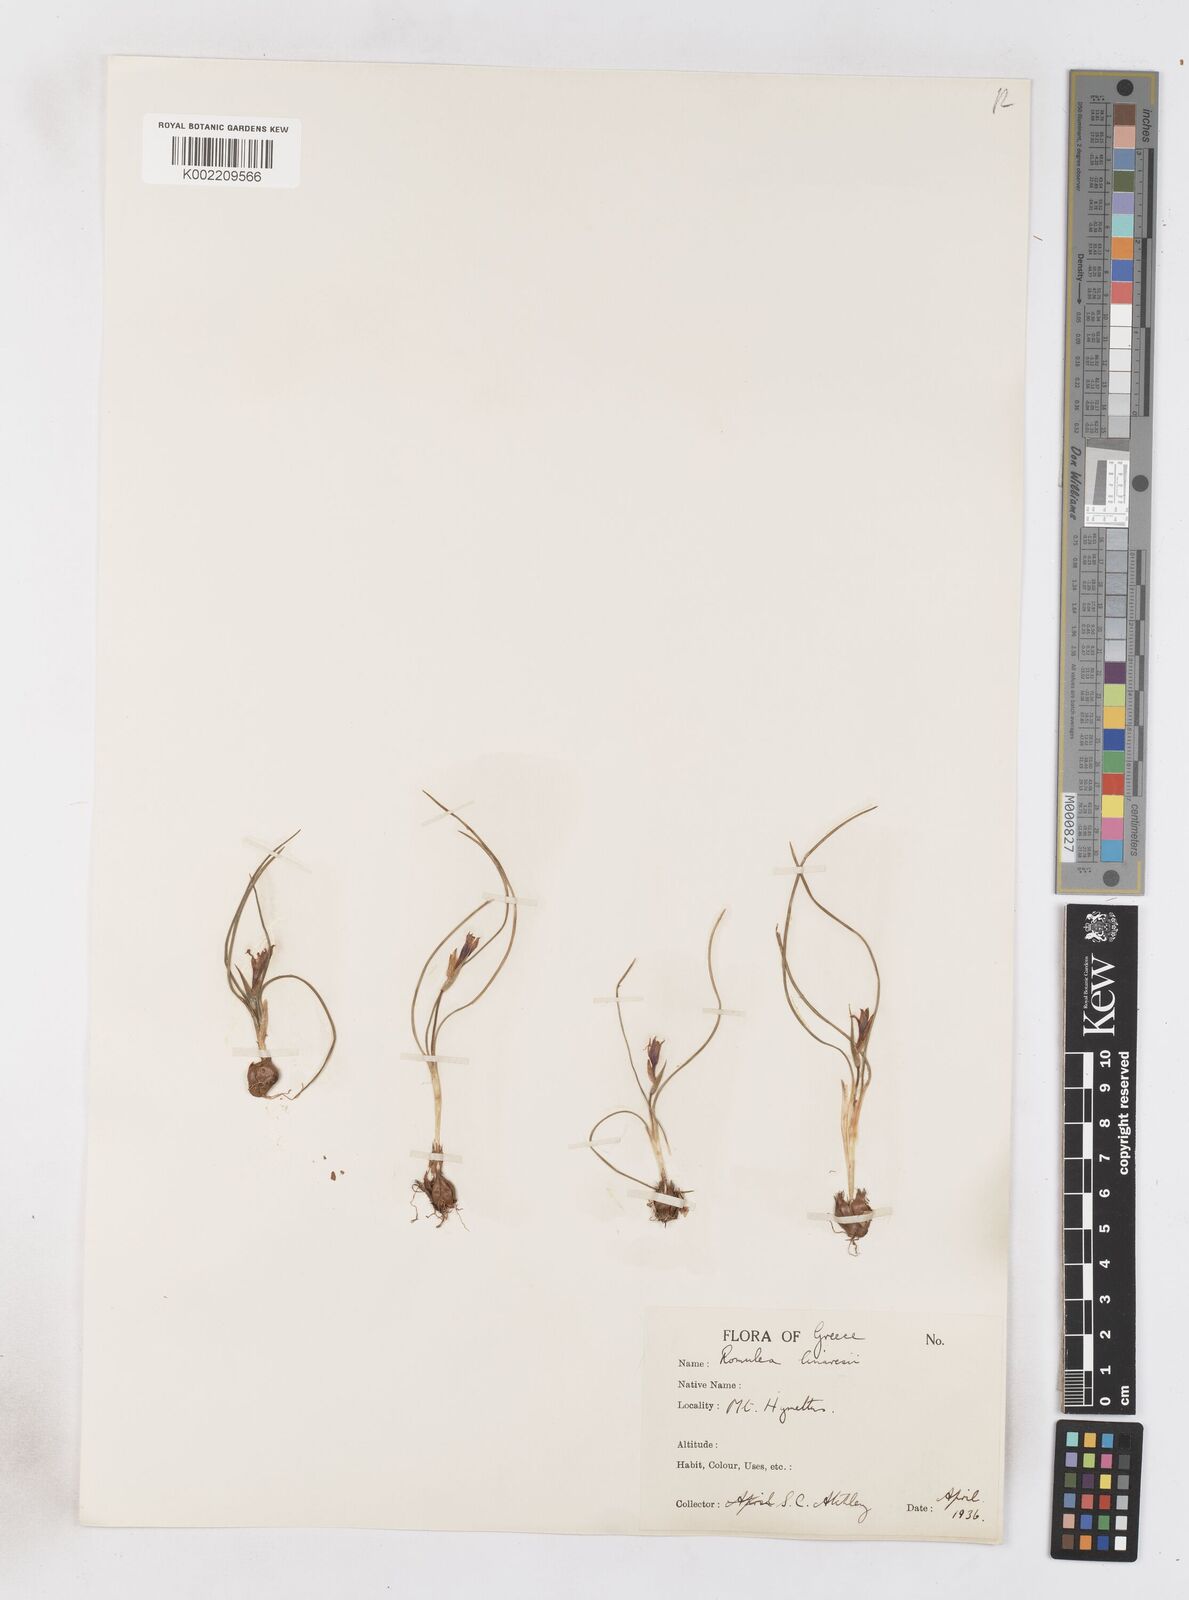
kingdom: Plantae
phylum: Tracheophyta
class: Liliopsida
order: Asparagales
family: Iridaceae
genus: Romulea
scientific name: Romulea linaresii
